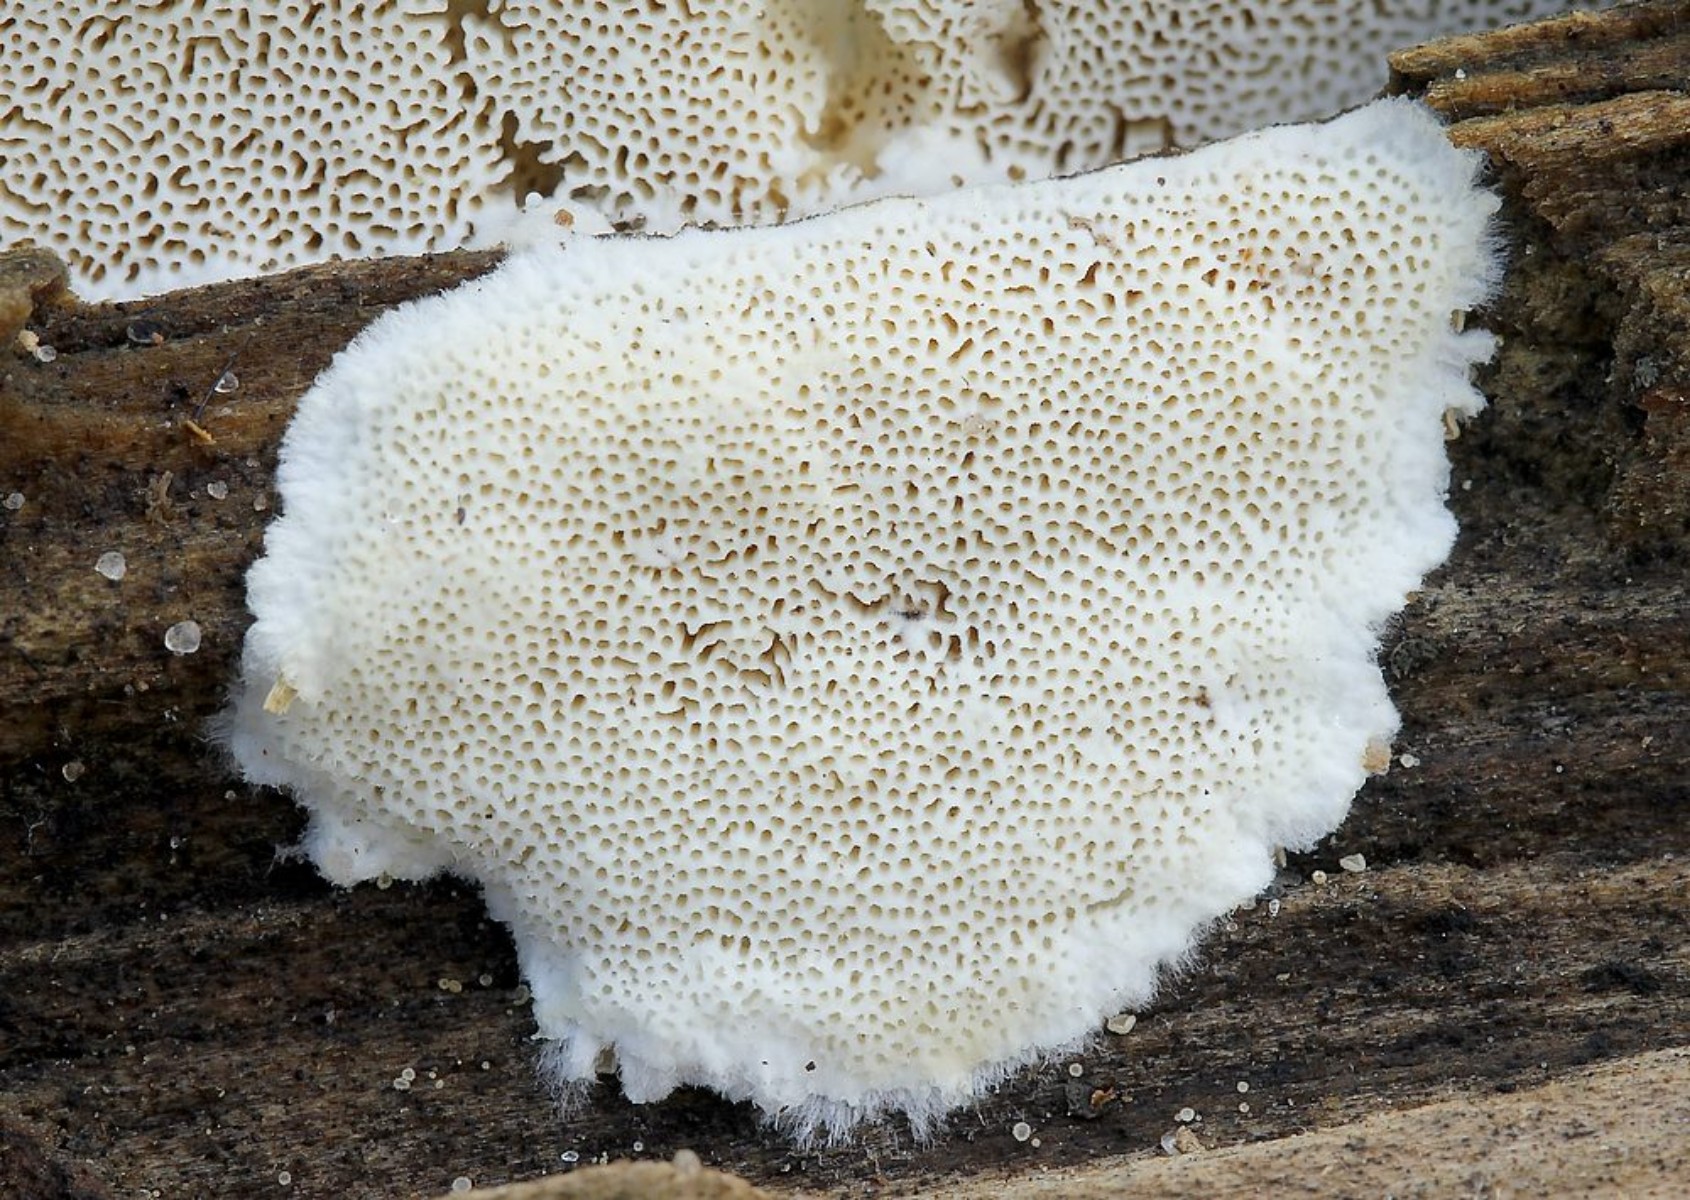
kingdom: Fungi
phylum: Basidiomycota
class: Agaricomycetes
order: Polyporales
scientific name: Polyporales
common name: poresvampordenen
